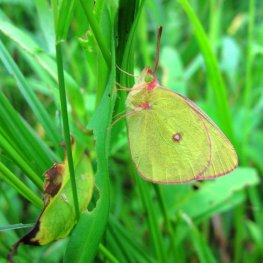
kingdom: Animalia
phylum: Arthropoda
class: Insecta
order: Lepidoptera
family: Pieridae
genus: Colias
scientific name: Colias interior
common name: Pink-edged Sulphur
